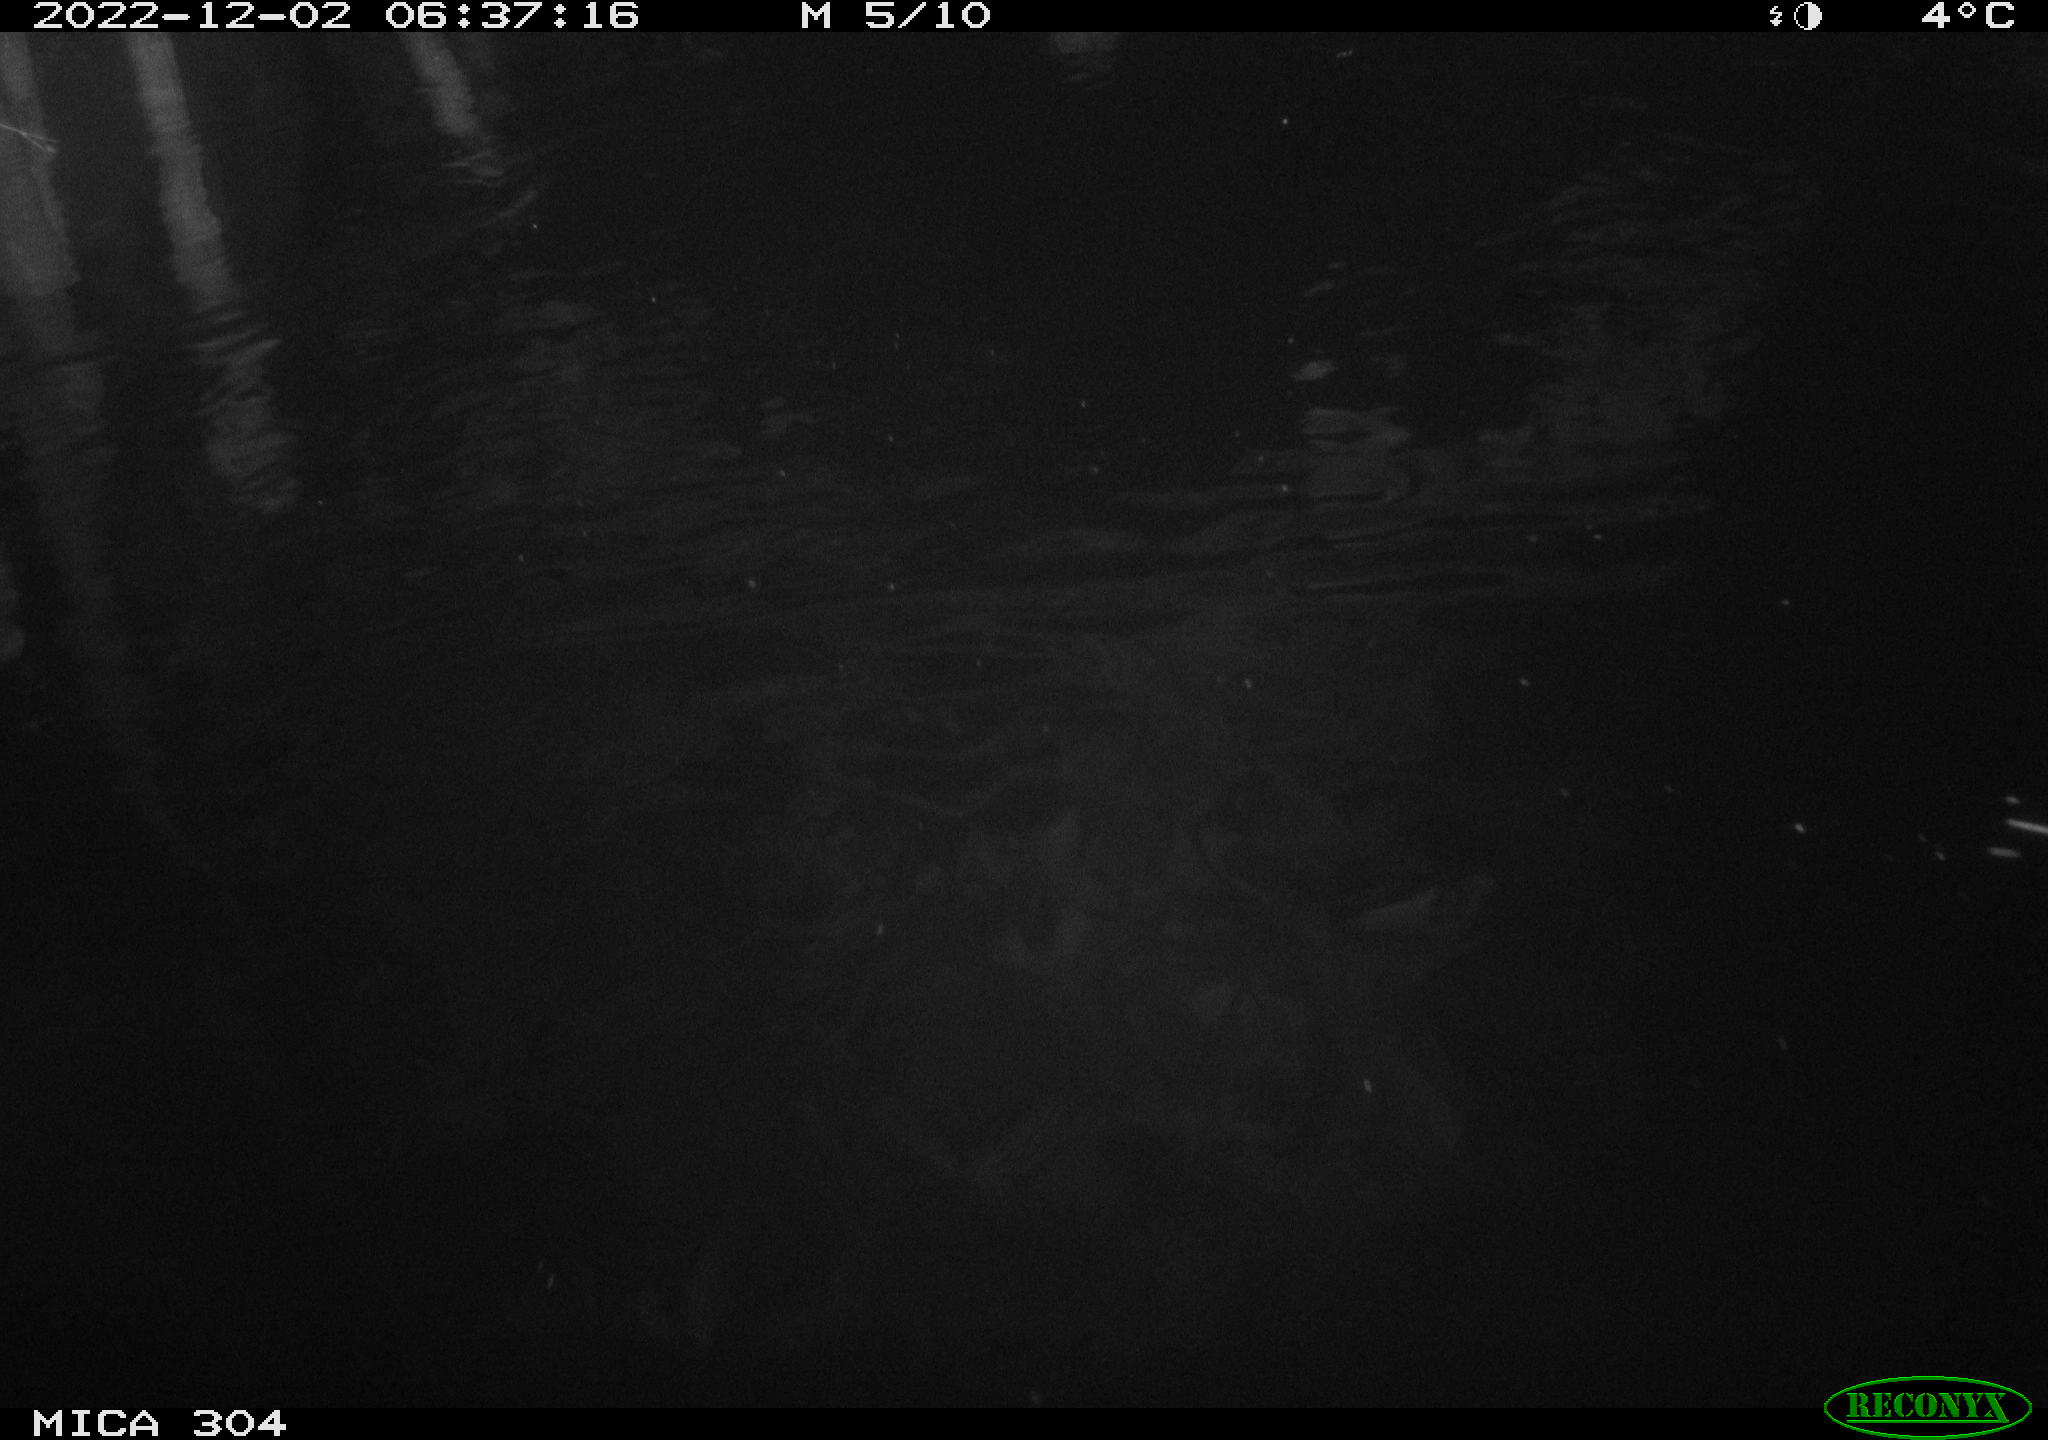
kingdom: Animalia
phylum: Chordata
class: Aves
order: Anseriformes
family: Anatidae
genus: Anas
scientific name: Anas
